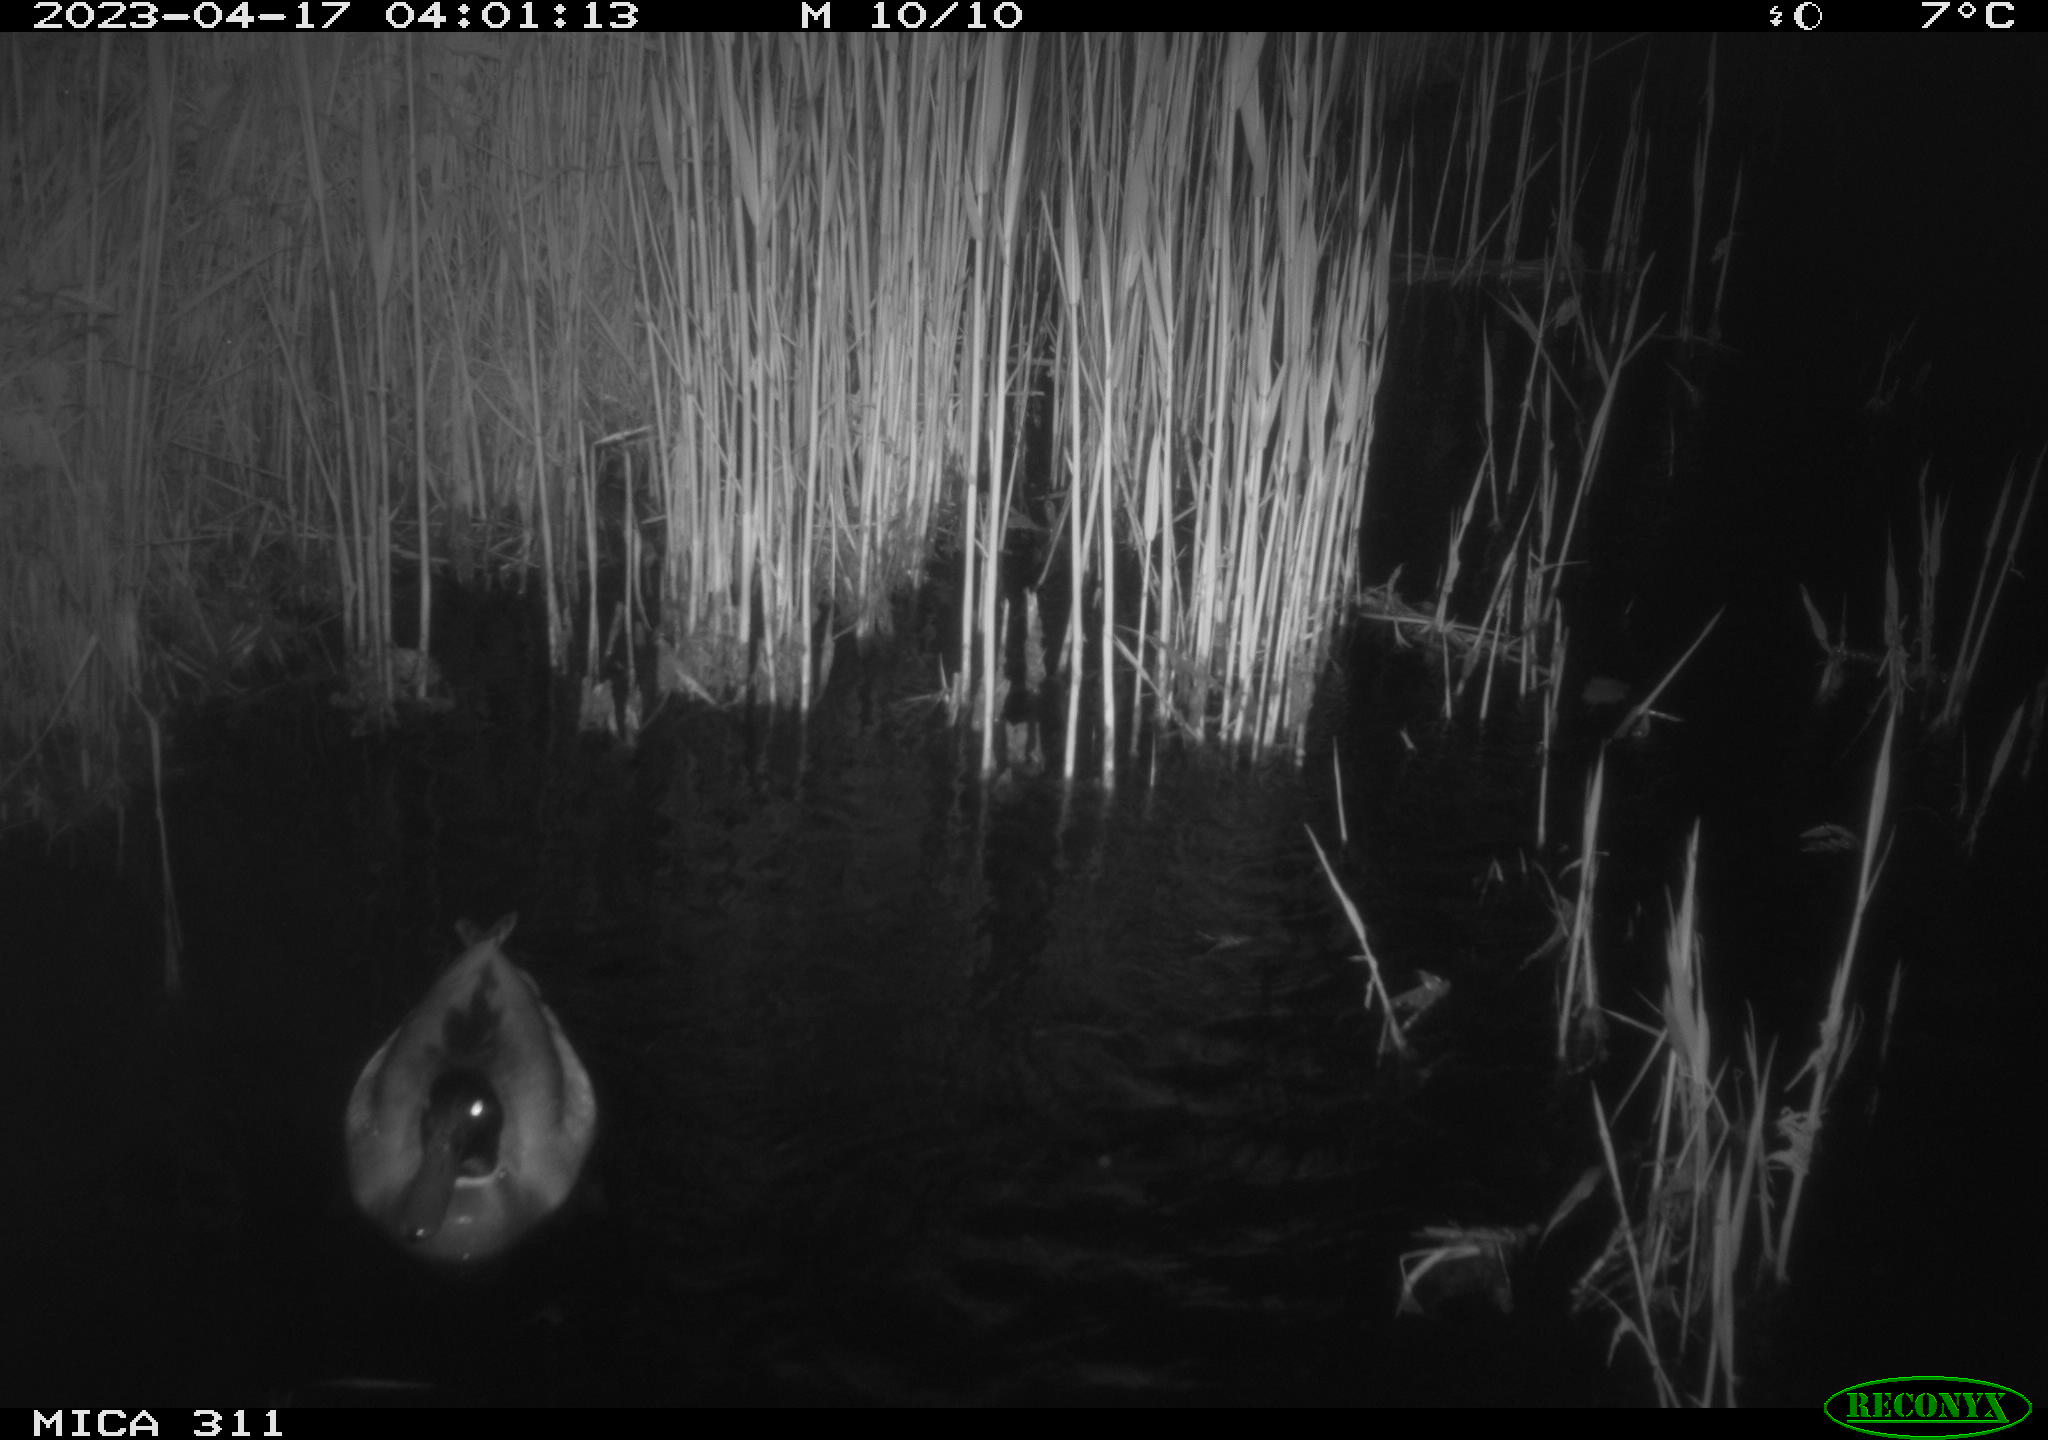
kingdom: Animalia
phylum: Chordata
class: Aves
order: Anseriformes
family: Anatidae
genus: Anas
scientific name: Anas
